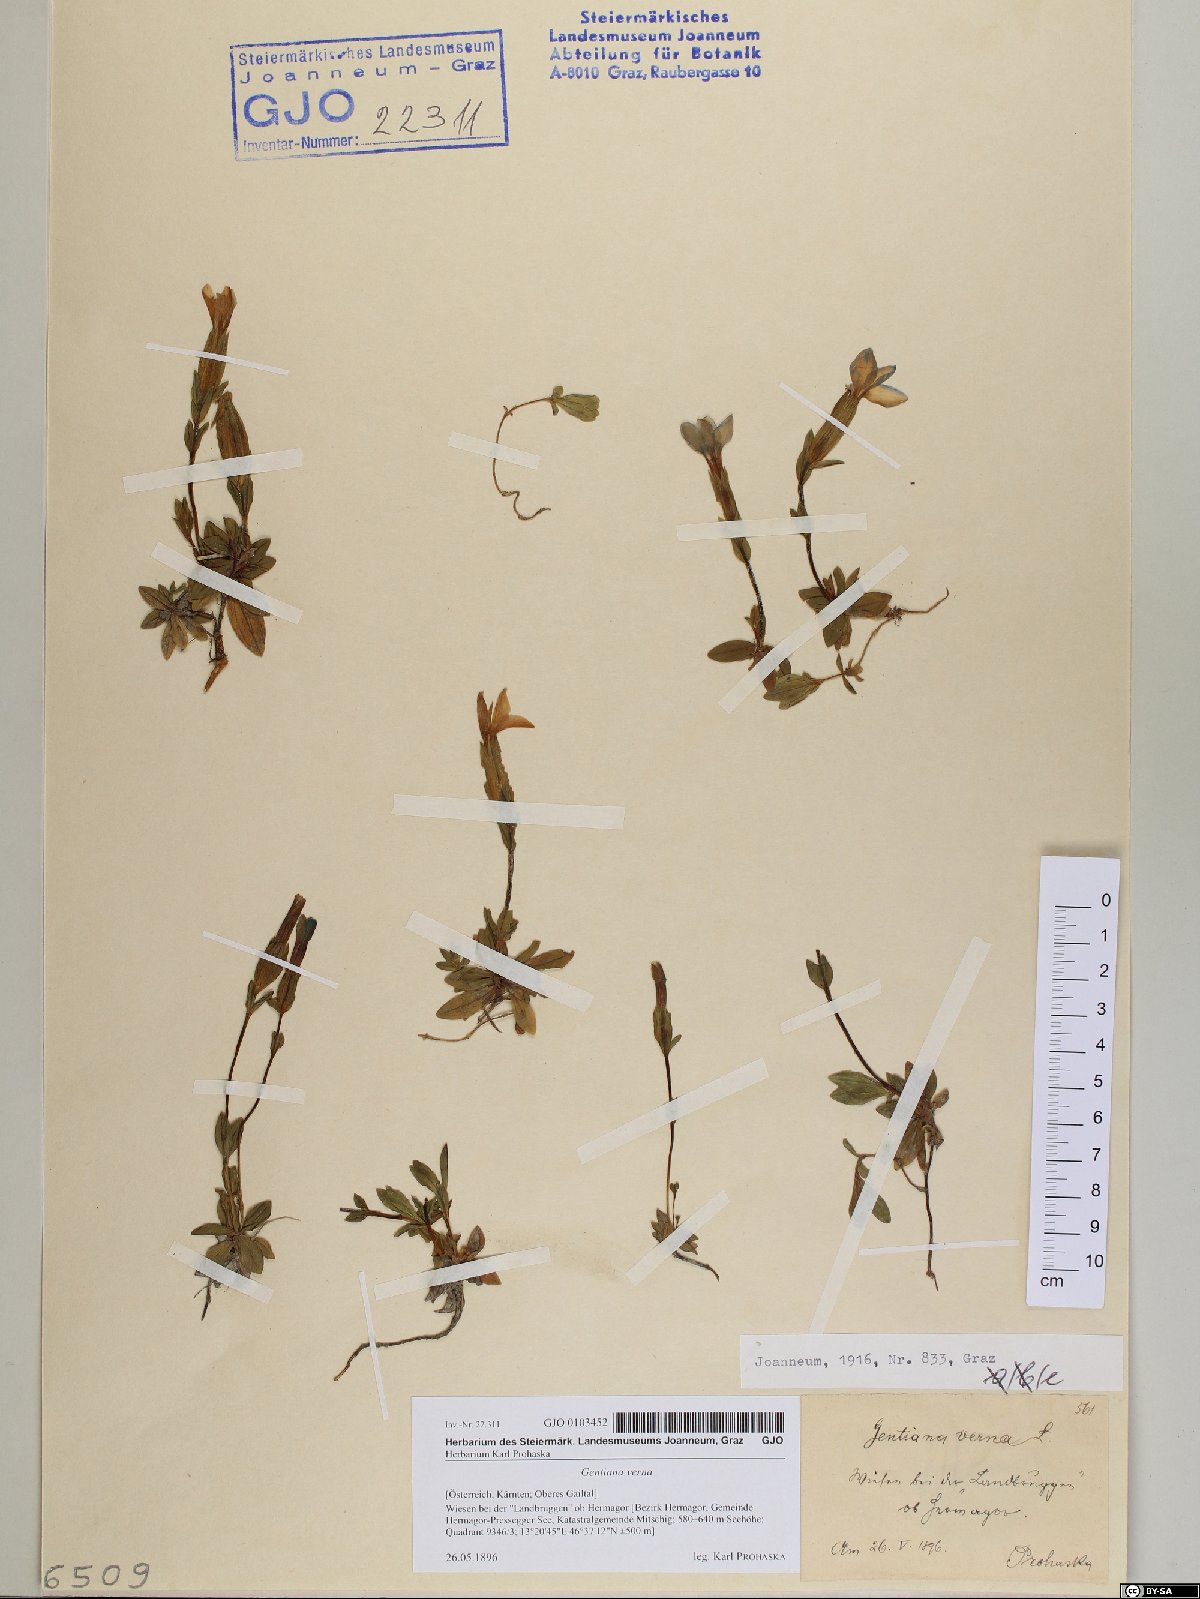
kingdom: Plantae
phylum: Tracheophyta
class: Magnoliopsida
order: Gentianales
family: Gentianaceae
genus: Gentiana
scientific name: Gentiana verna
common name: Spring gentian
